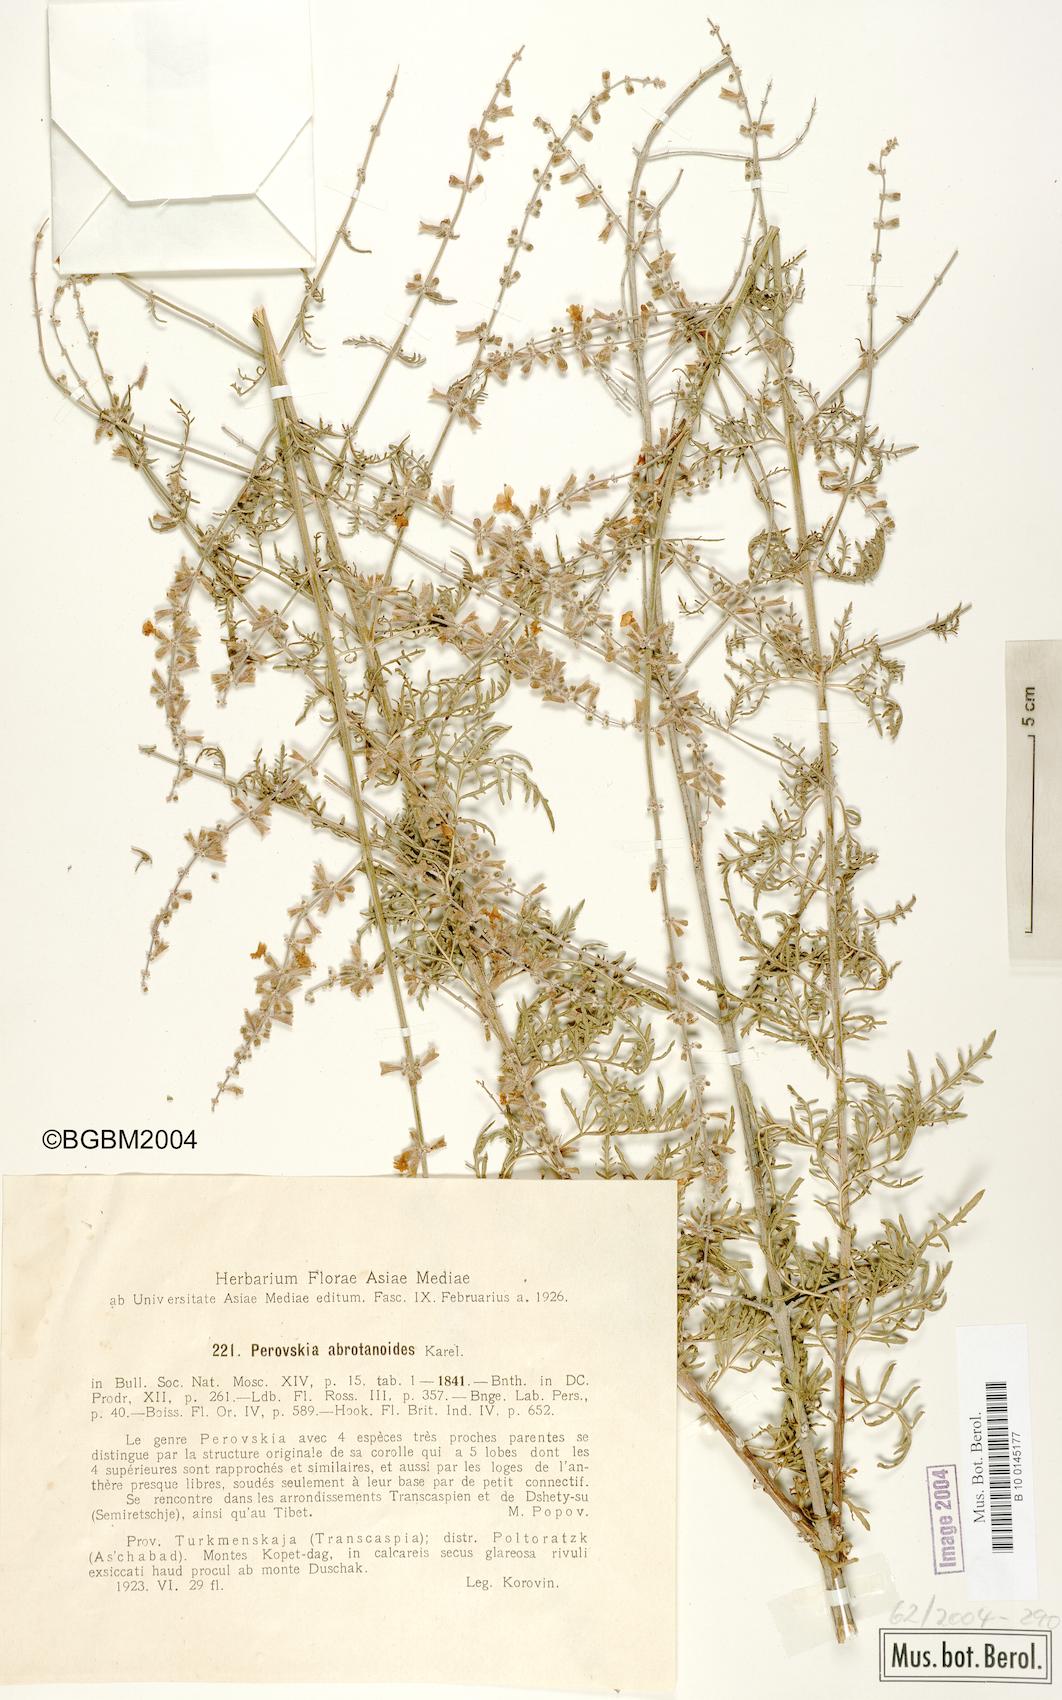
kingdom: Plantae
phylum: Tracheophyta
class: Magnoliopsida
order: Lamiales
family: Lamiaceae
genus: Salvia
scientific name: Salvia abrotanoides
